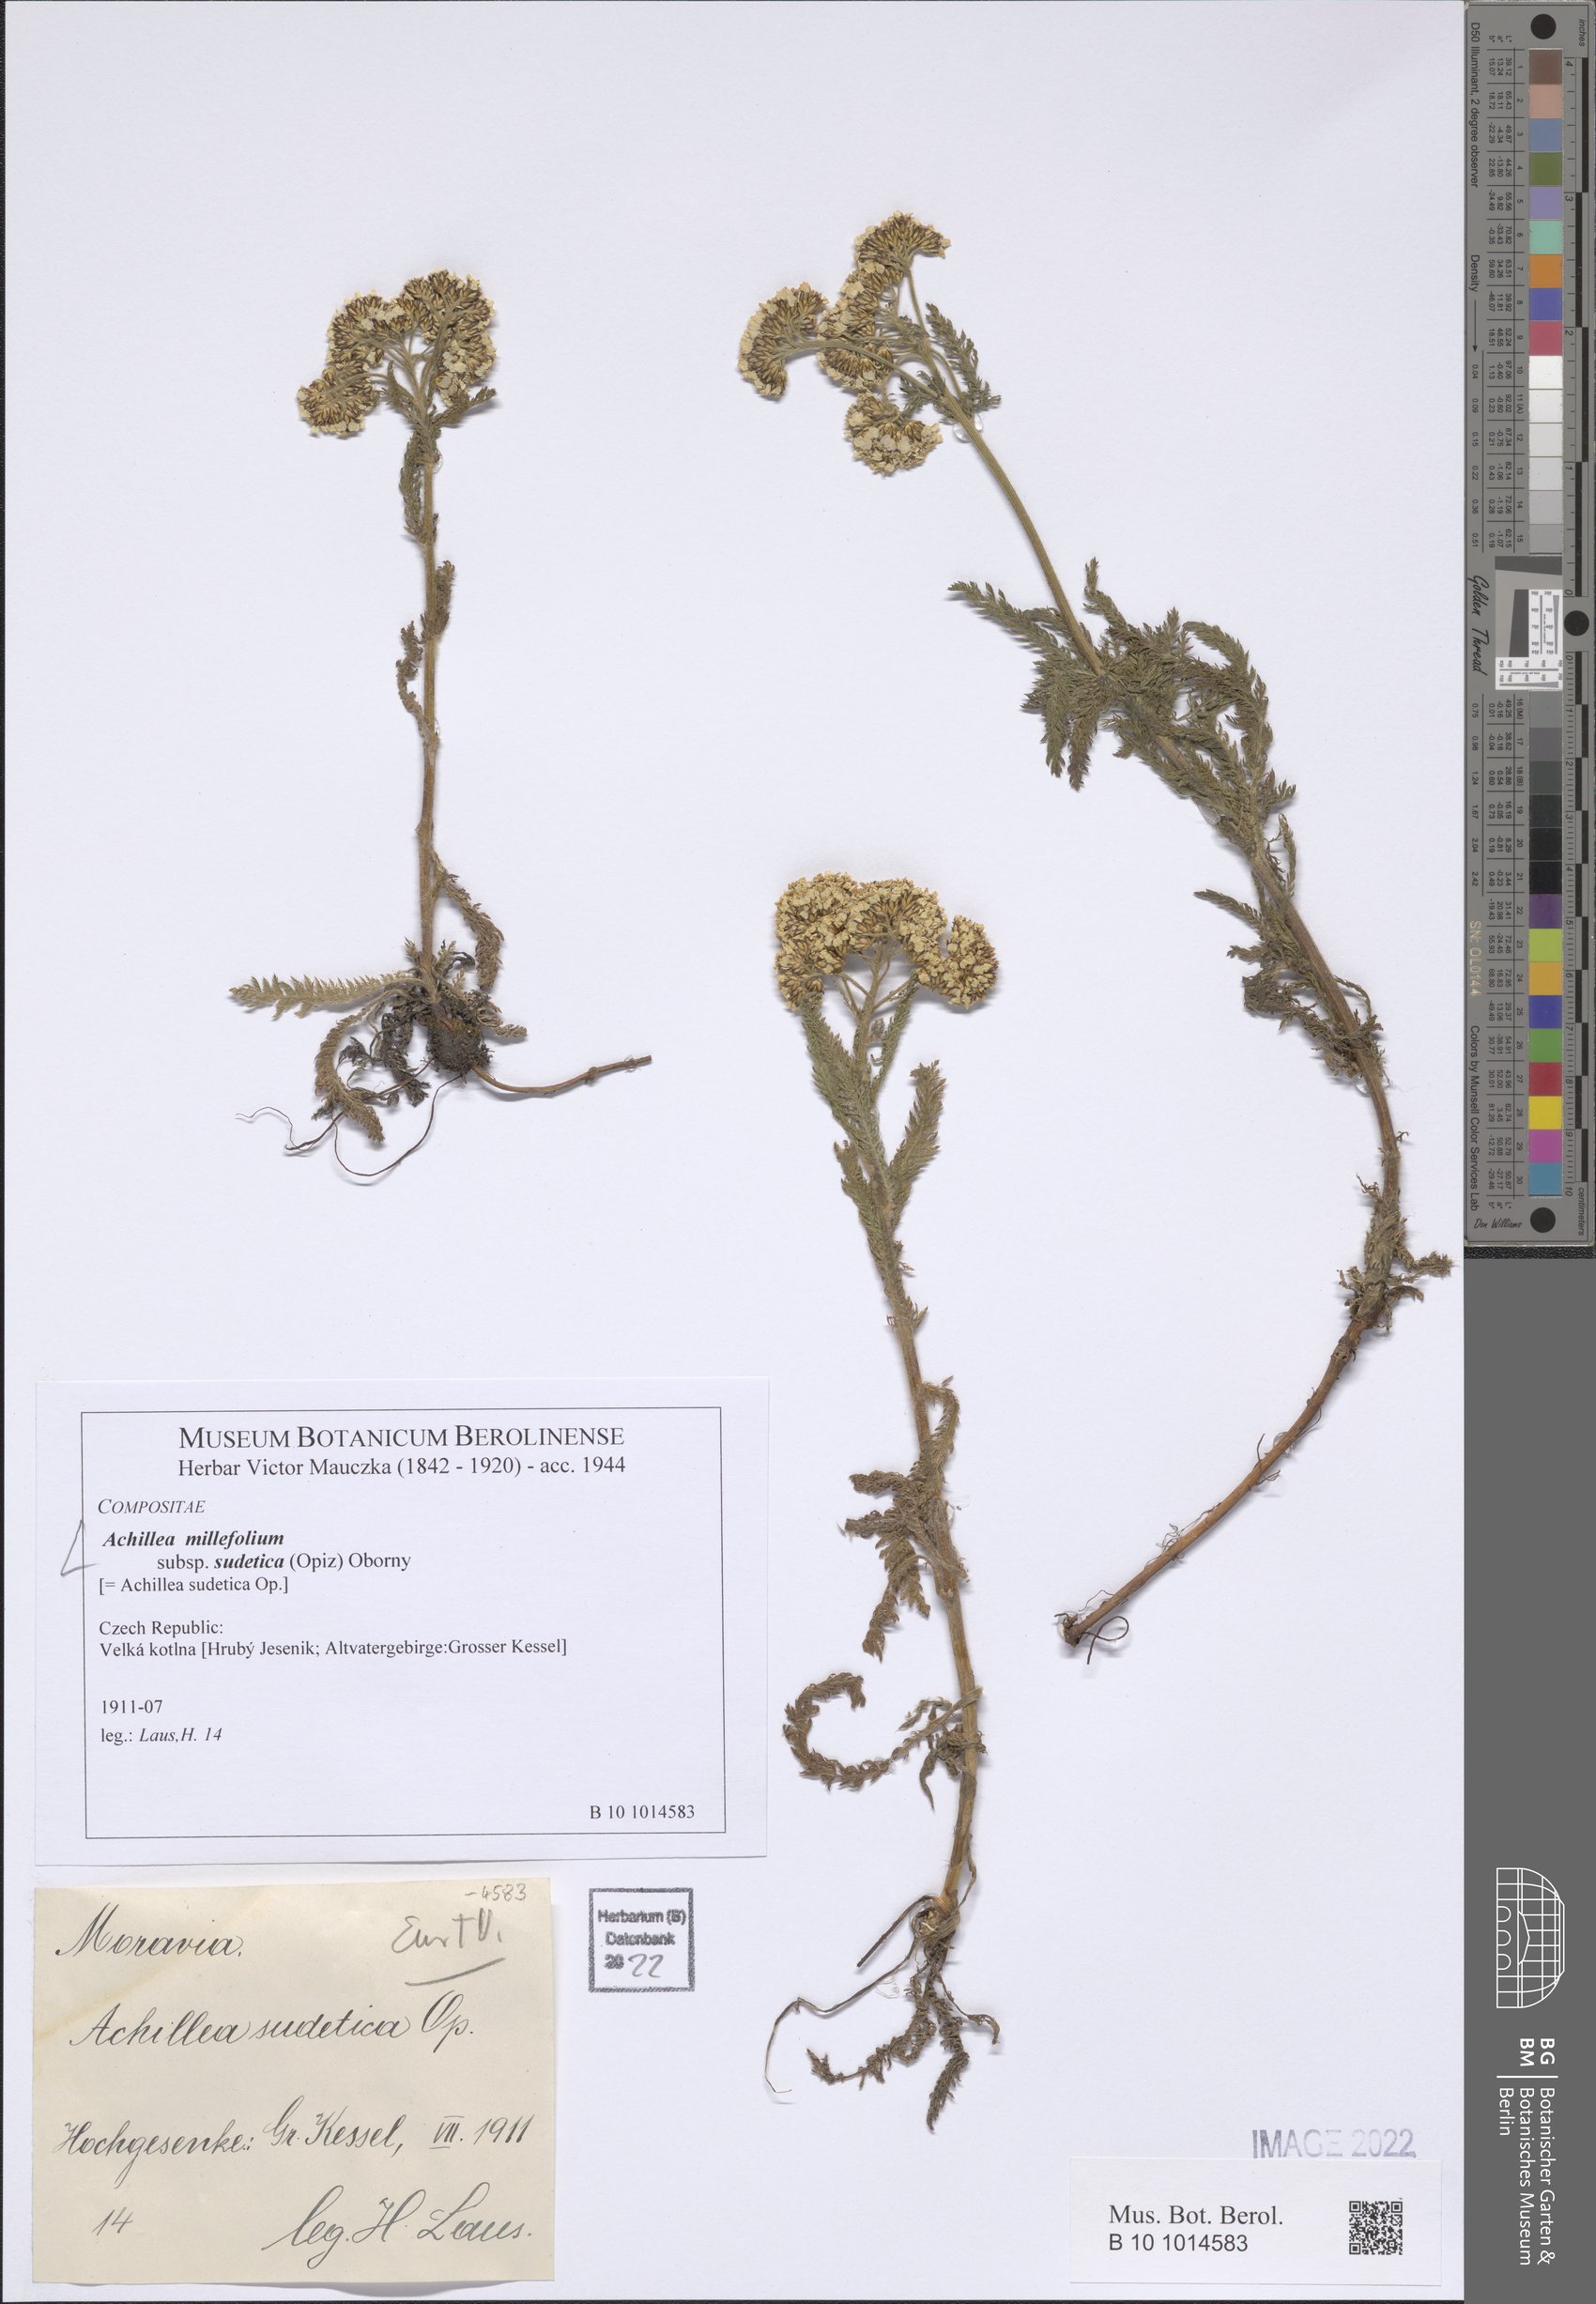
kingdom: Plantae
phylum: Tracheophyta
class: Magnoliopsida
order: Asterales
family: Asteraceae
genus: Achillea
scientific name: Achillea millefolium
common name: Yarrow
